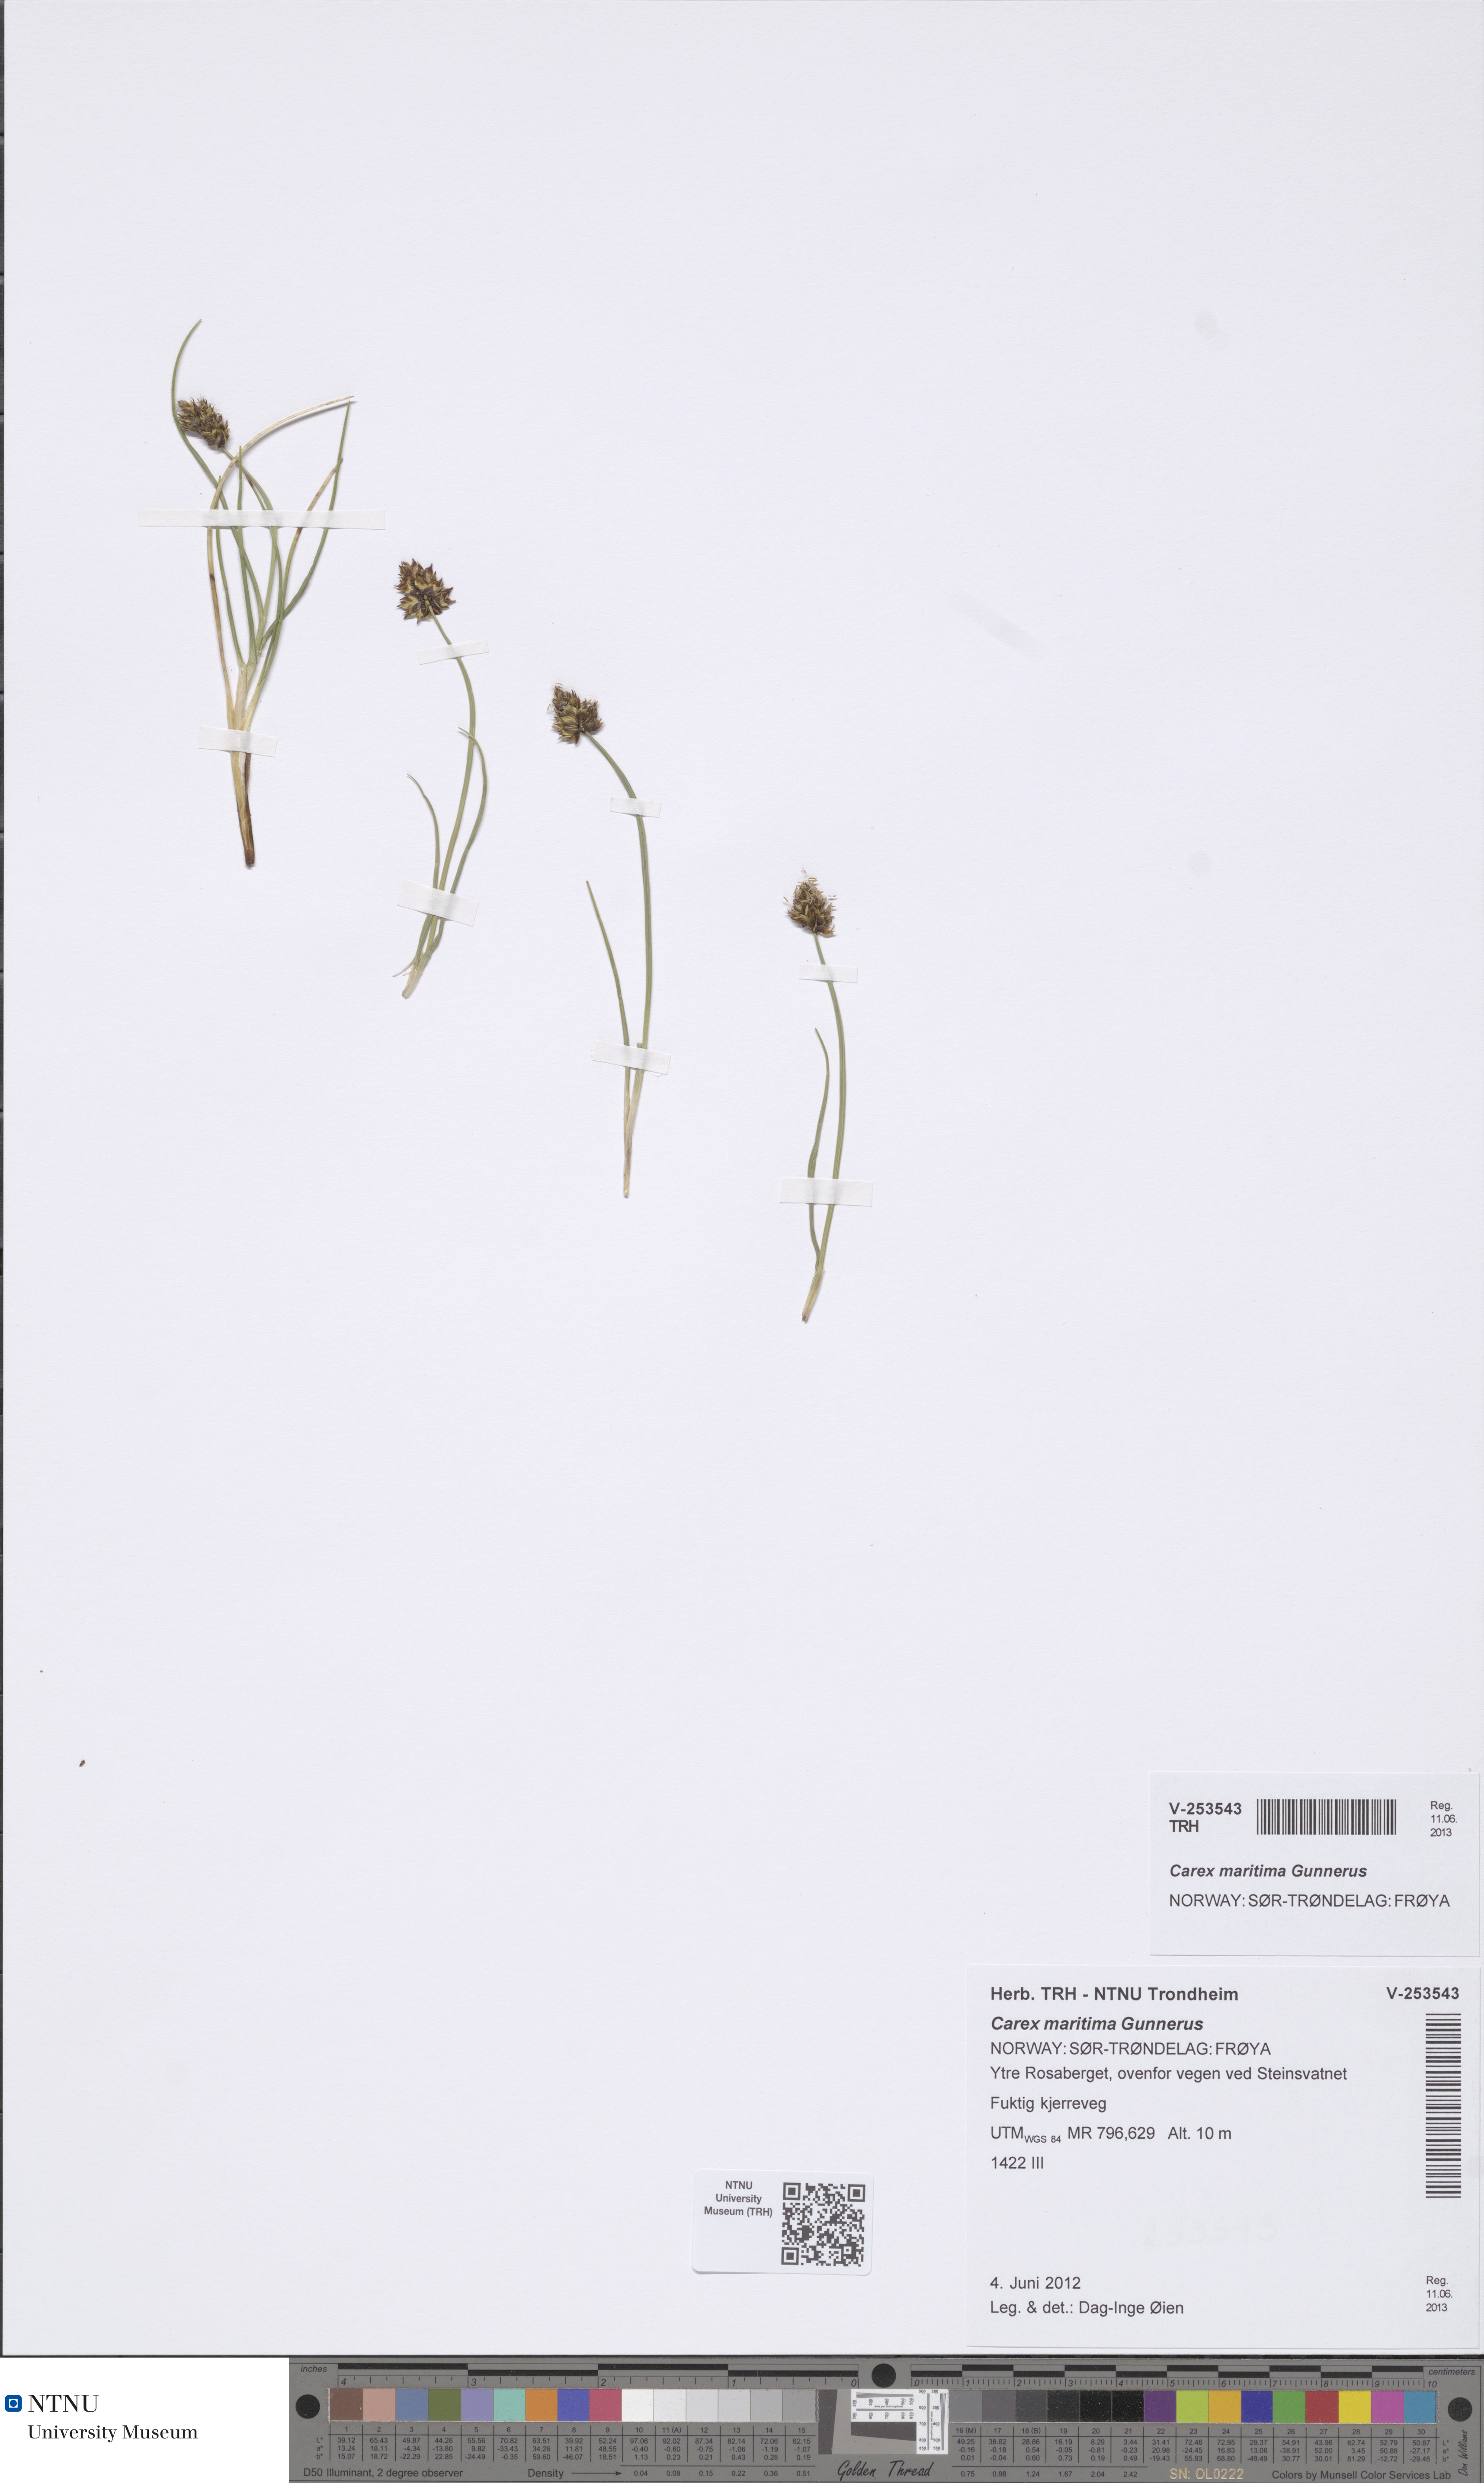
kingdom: Plantae
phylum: Tracheophyta
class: Liliopsida
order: Poales
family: Cyperaceae
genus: Carex
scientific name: Carex maritima
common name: Curved sedge
